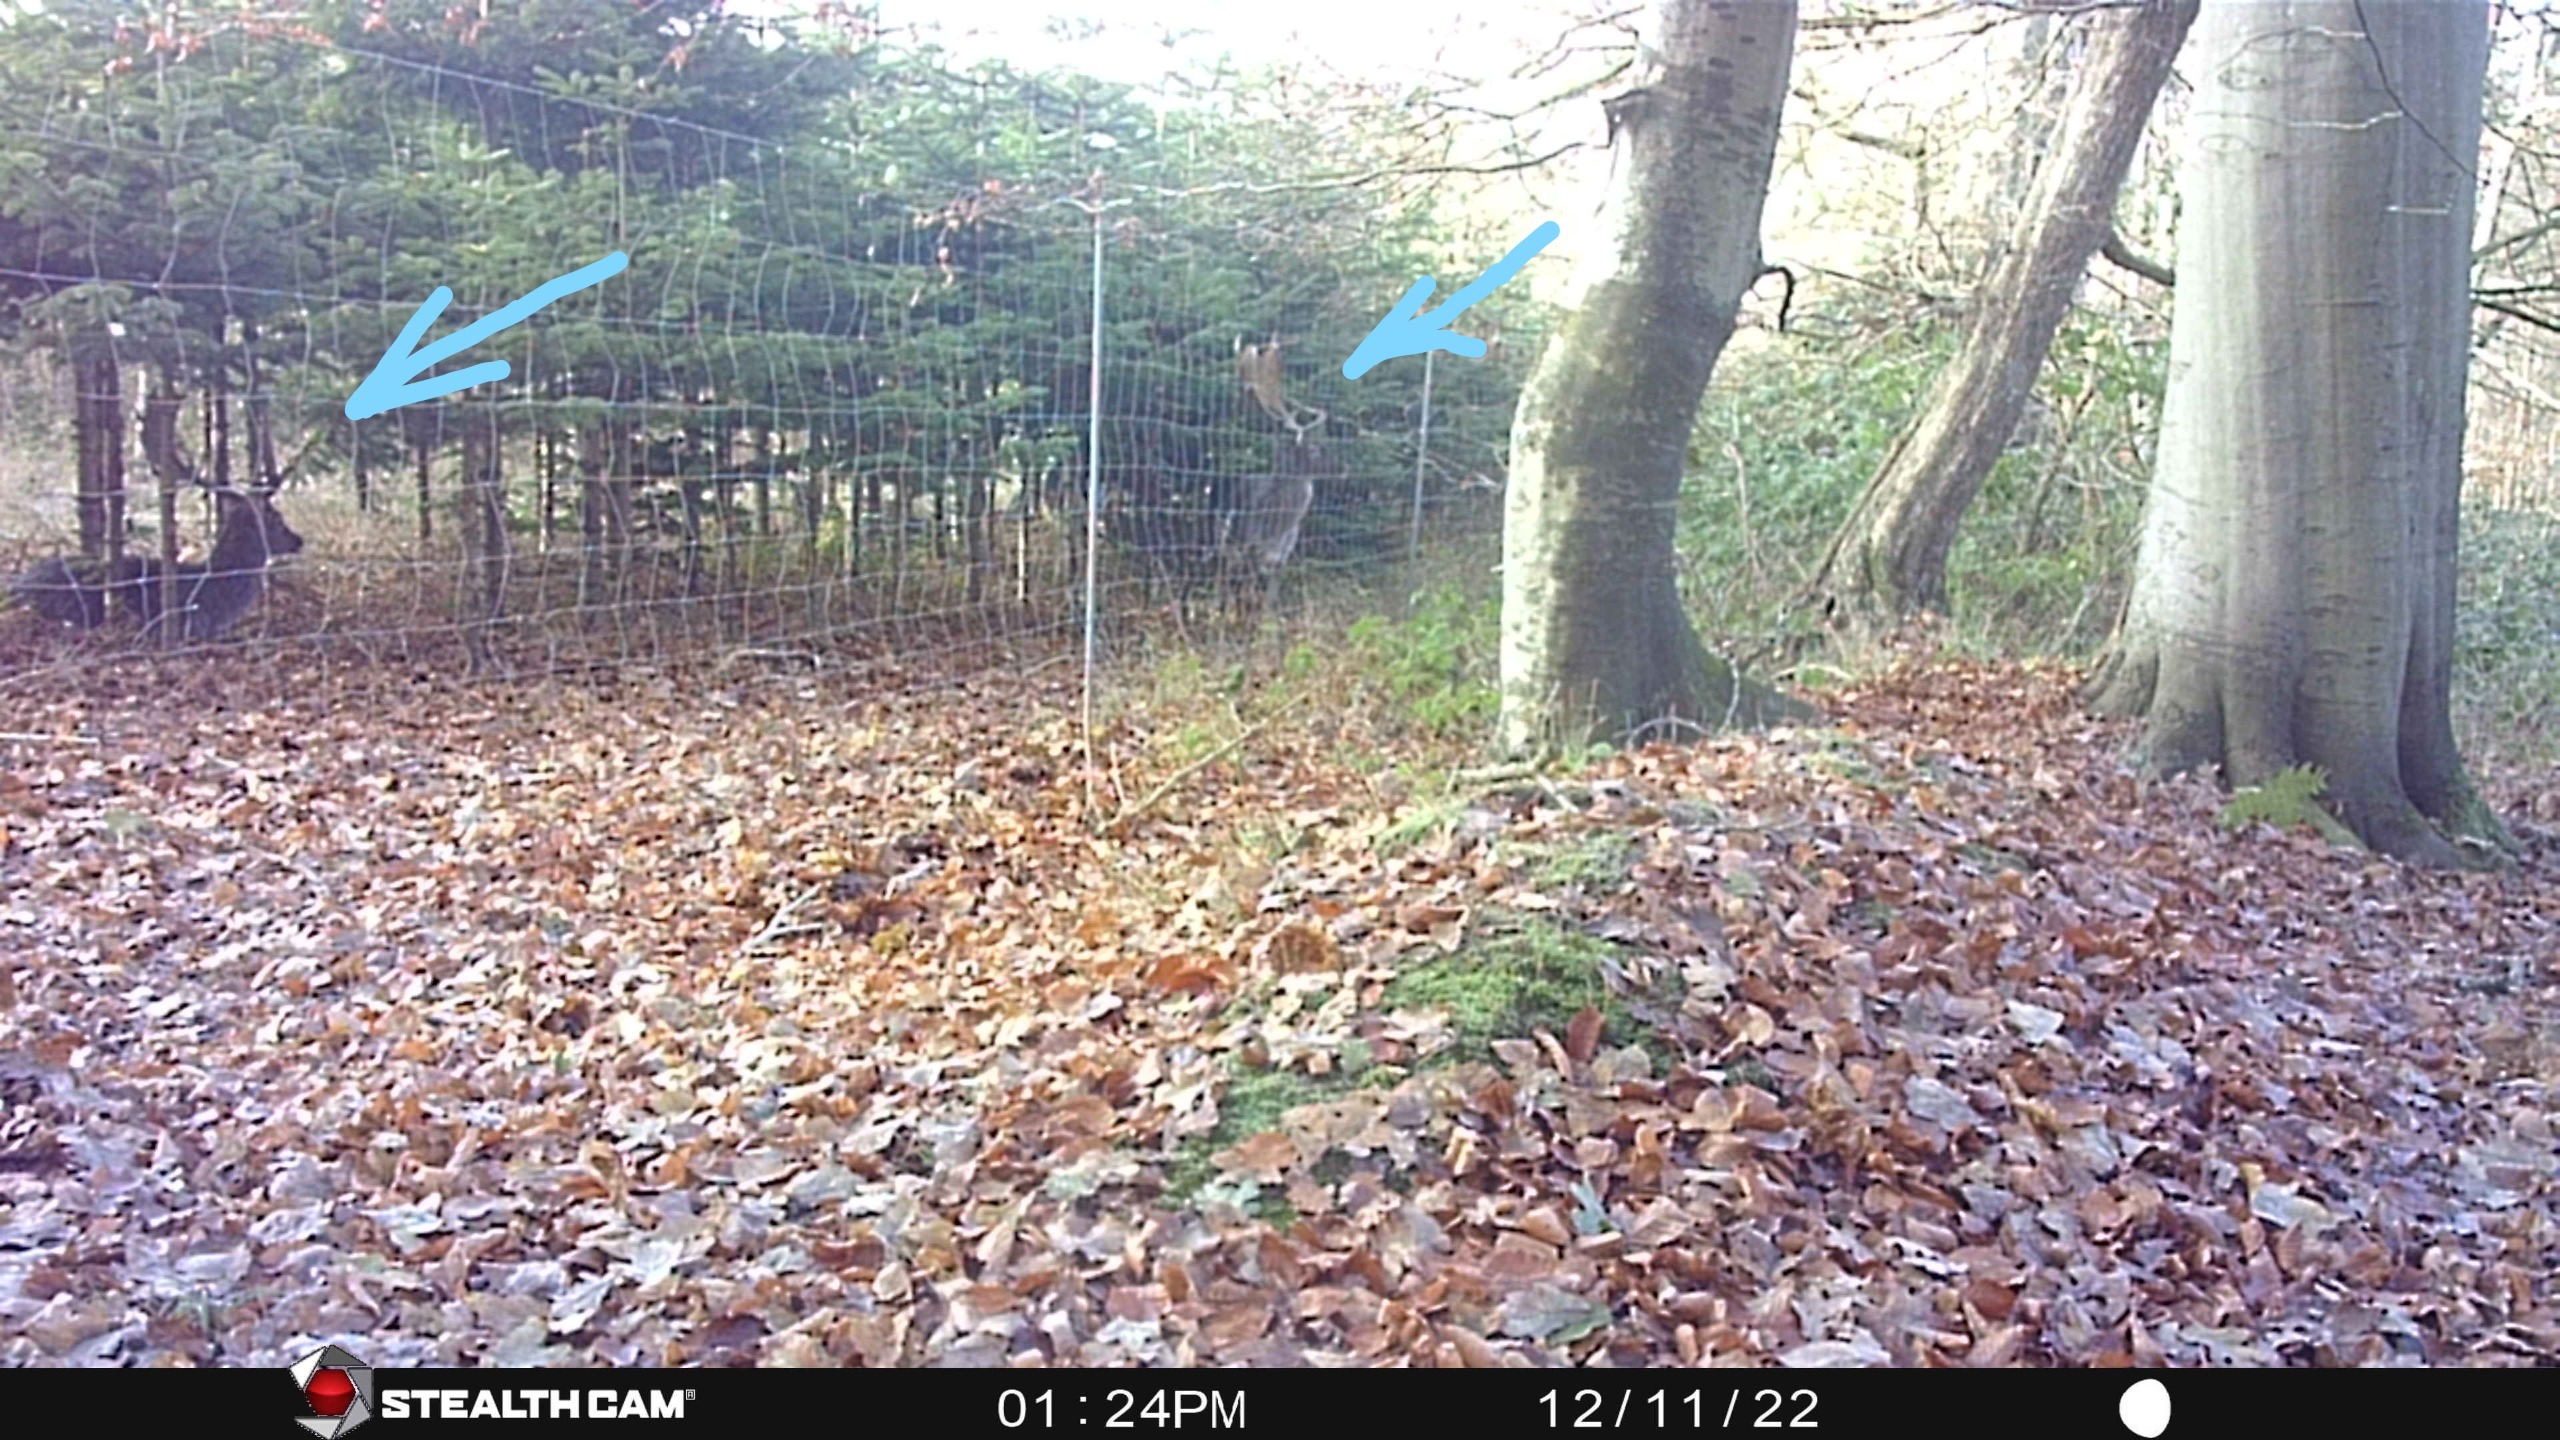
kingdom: Animalia
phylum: Chordata
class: Mammalia
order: Artiodactyla
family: Cervidae
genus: Dama
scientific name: Dama dama
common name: Dådyr
